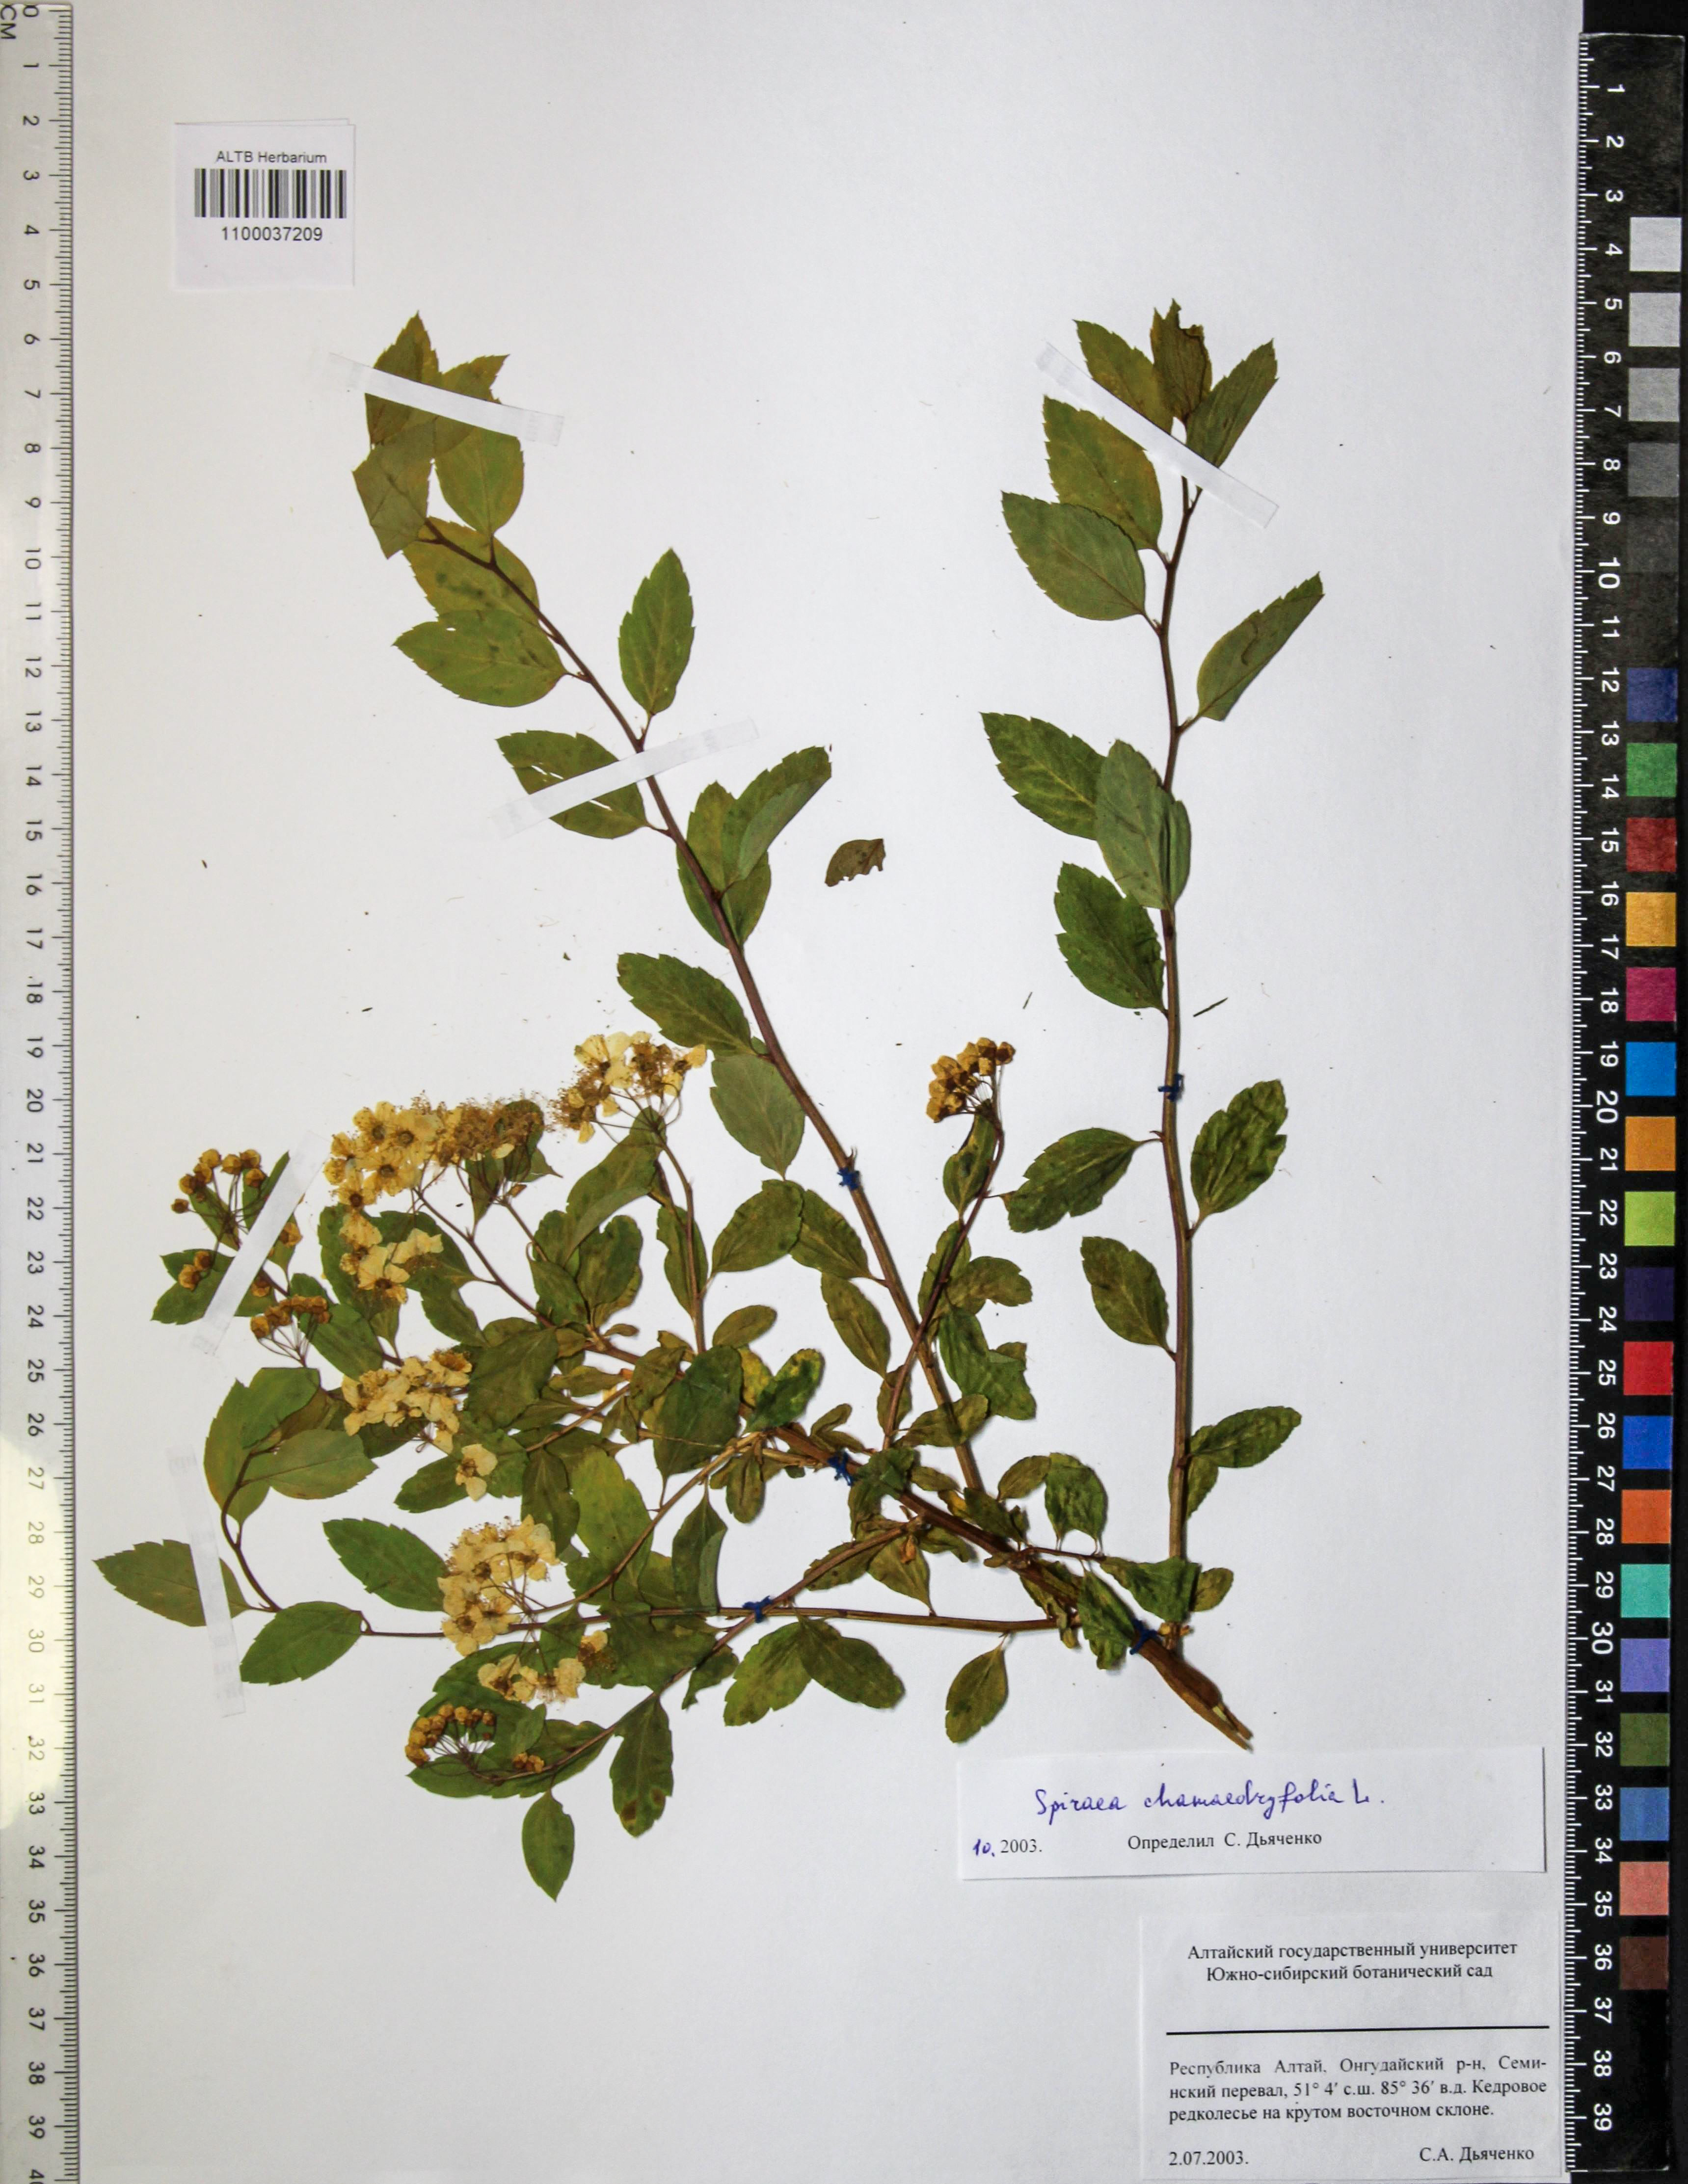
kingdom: Plantae
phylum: Tracheophyta
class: Magnoliopsida
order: Rosales
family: Rosaceae
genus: Spiraea
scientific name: Spiraea chamaedryfolia
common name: Elm-leaved spiraea
